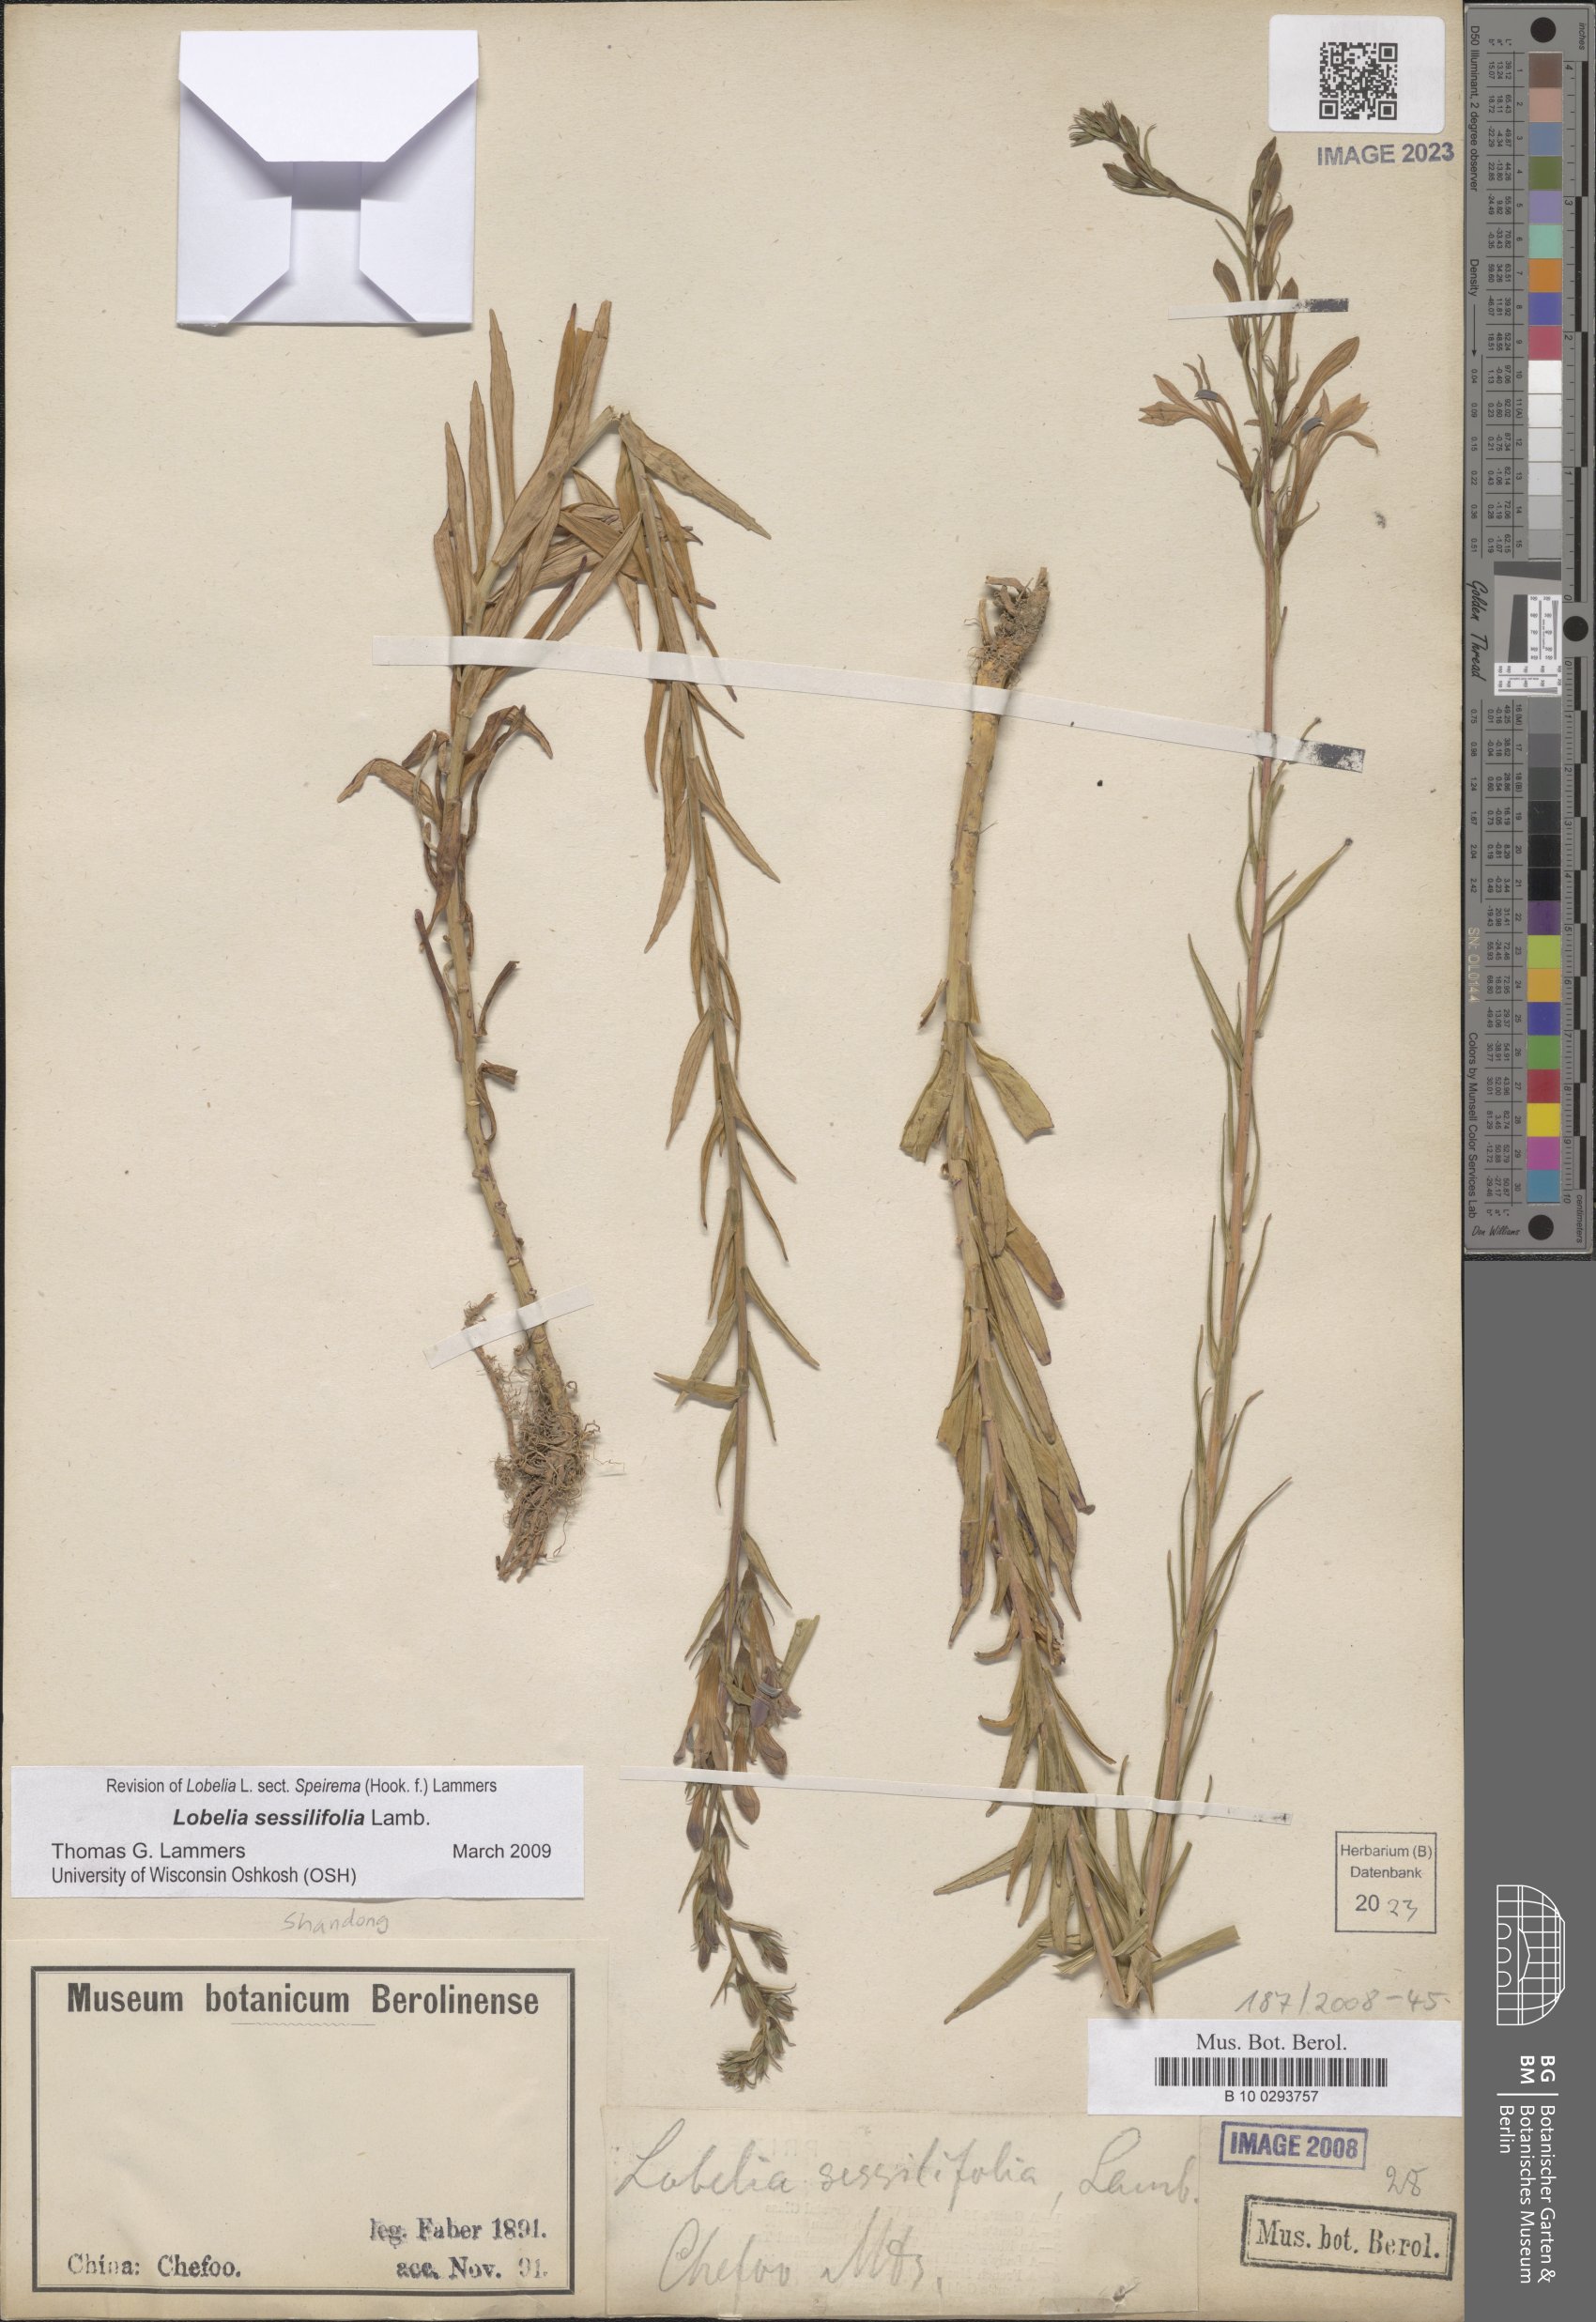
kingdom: Plantae
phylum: Tracheophyta
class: Magnoliopsida
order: Asterales
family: Campanulaceae
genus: Lobelia
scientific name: Lobelia sessilifolia
